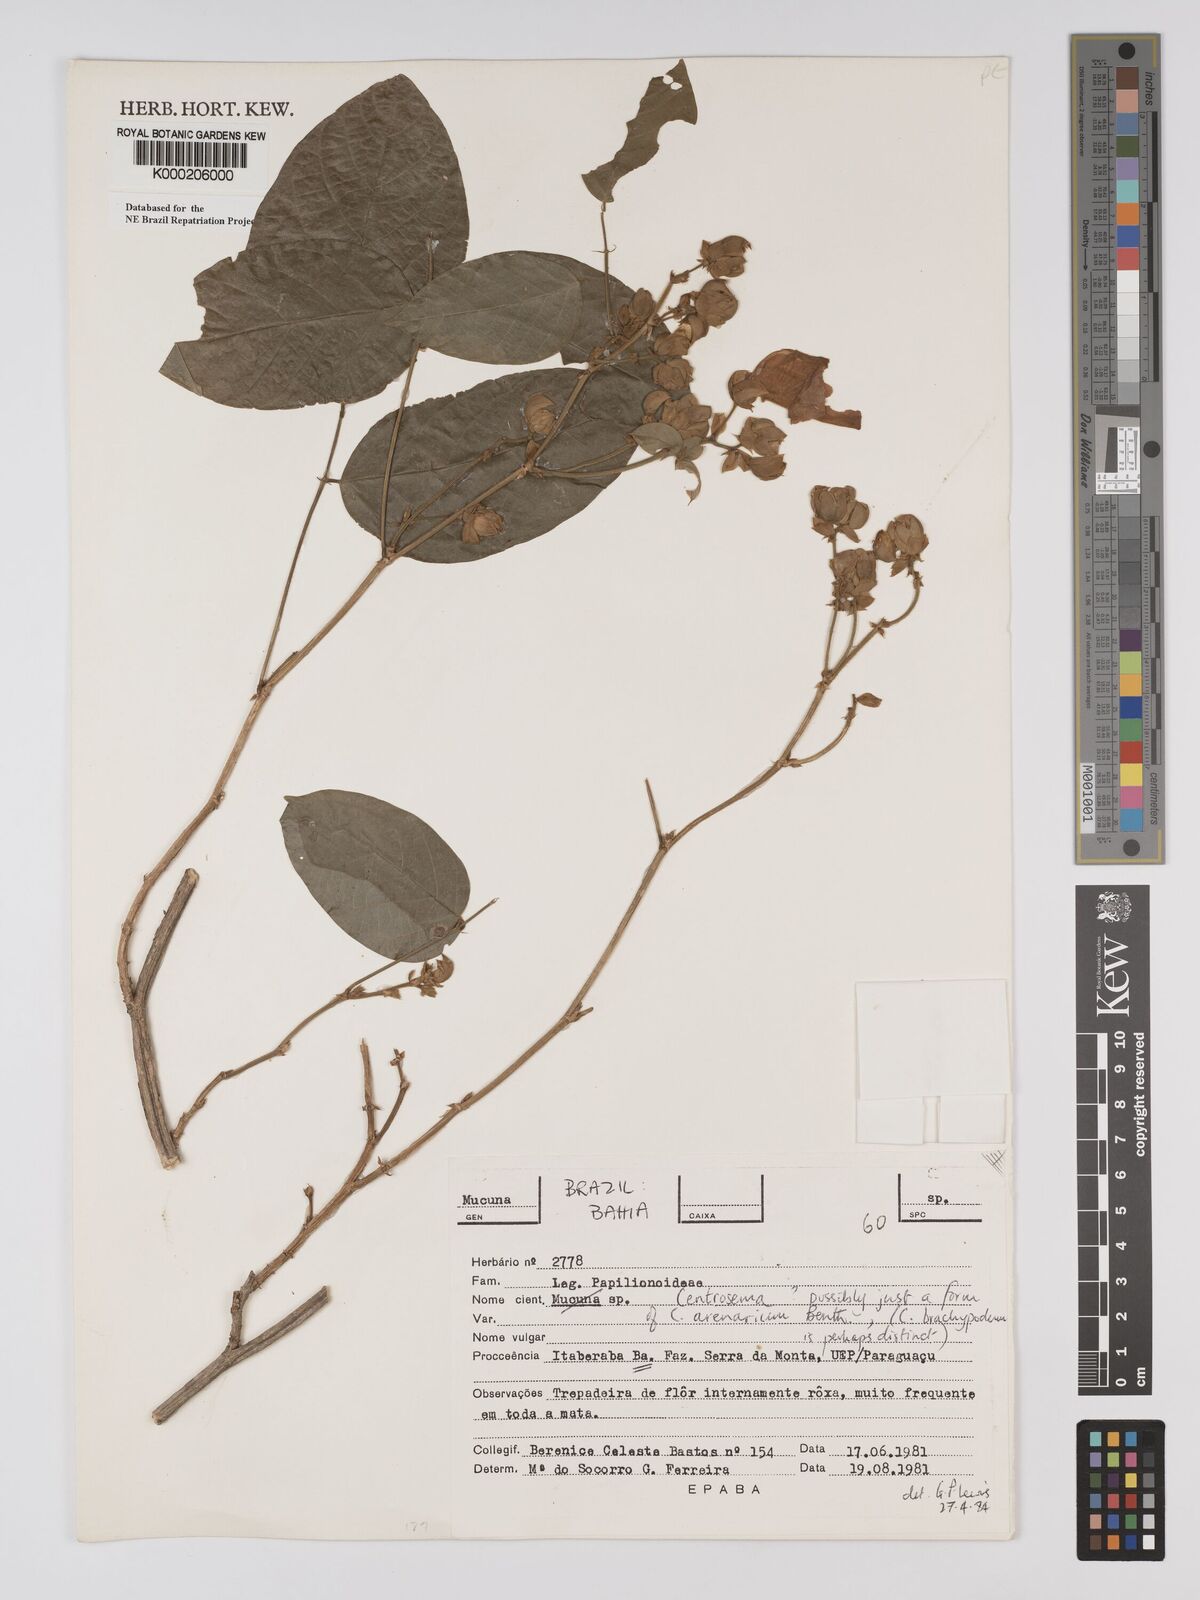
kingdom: Plantae
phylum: Tracheophyta
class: Magnoliopsida
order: Fabales
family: Fabaceae
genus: Centrosema
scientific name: Centrosema arenarium
